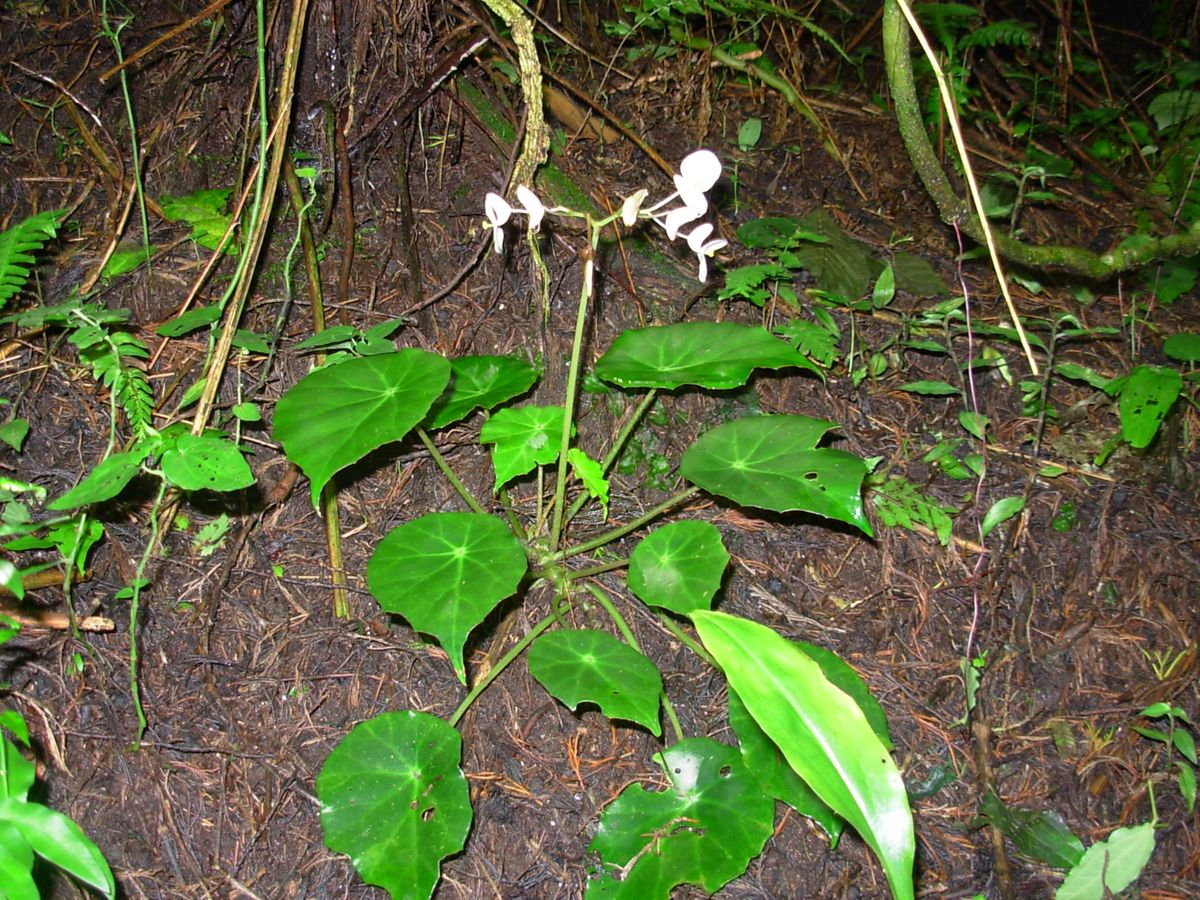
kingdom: Plantae
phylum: Tracheophyta
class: Magnoliopsida
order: Cucurbitales
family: Begoniaceae
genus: Begonia
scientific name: Begonia calderonii
